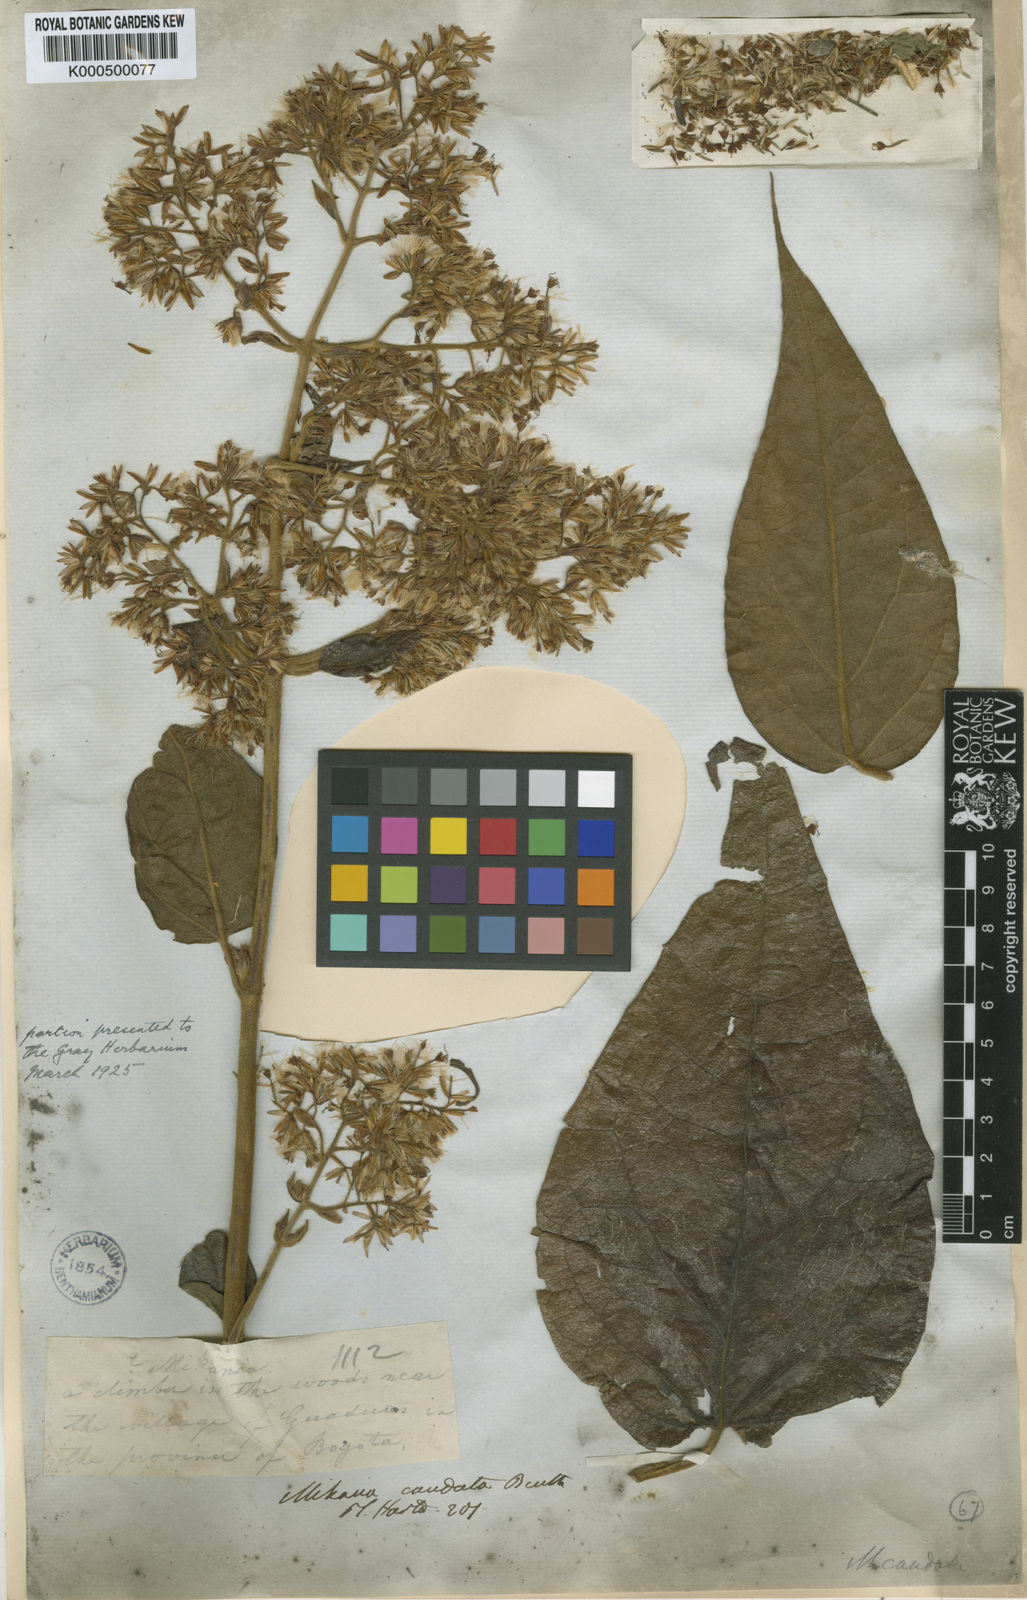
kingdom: Plantae
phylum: Tracheophyta
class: Magnoliopsida
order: Asterales
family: Asteraceae
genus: Mikania
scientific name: Mikania banisteriae
